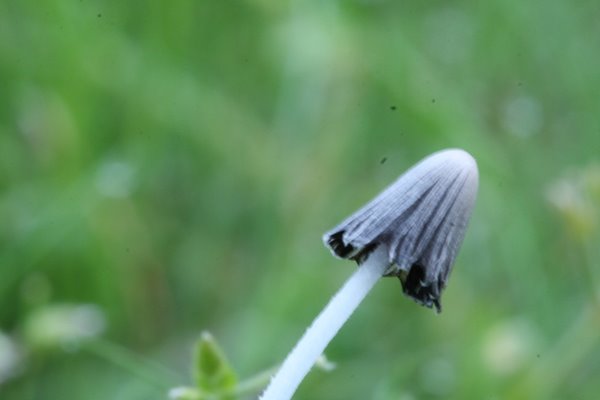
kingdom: Fungi
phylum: Basidiomycota
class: Agaricomycetes
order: Agaricales
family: Psathyrellaceae
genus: Coprinopsis
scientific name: Coprinopsis lagopus
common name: dunstokket blækhat
